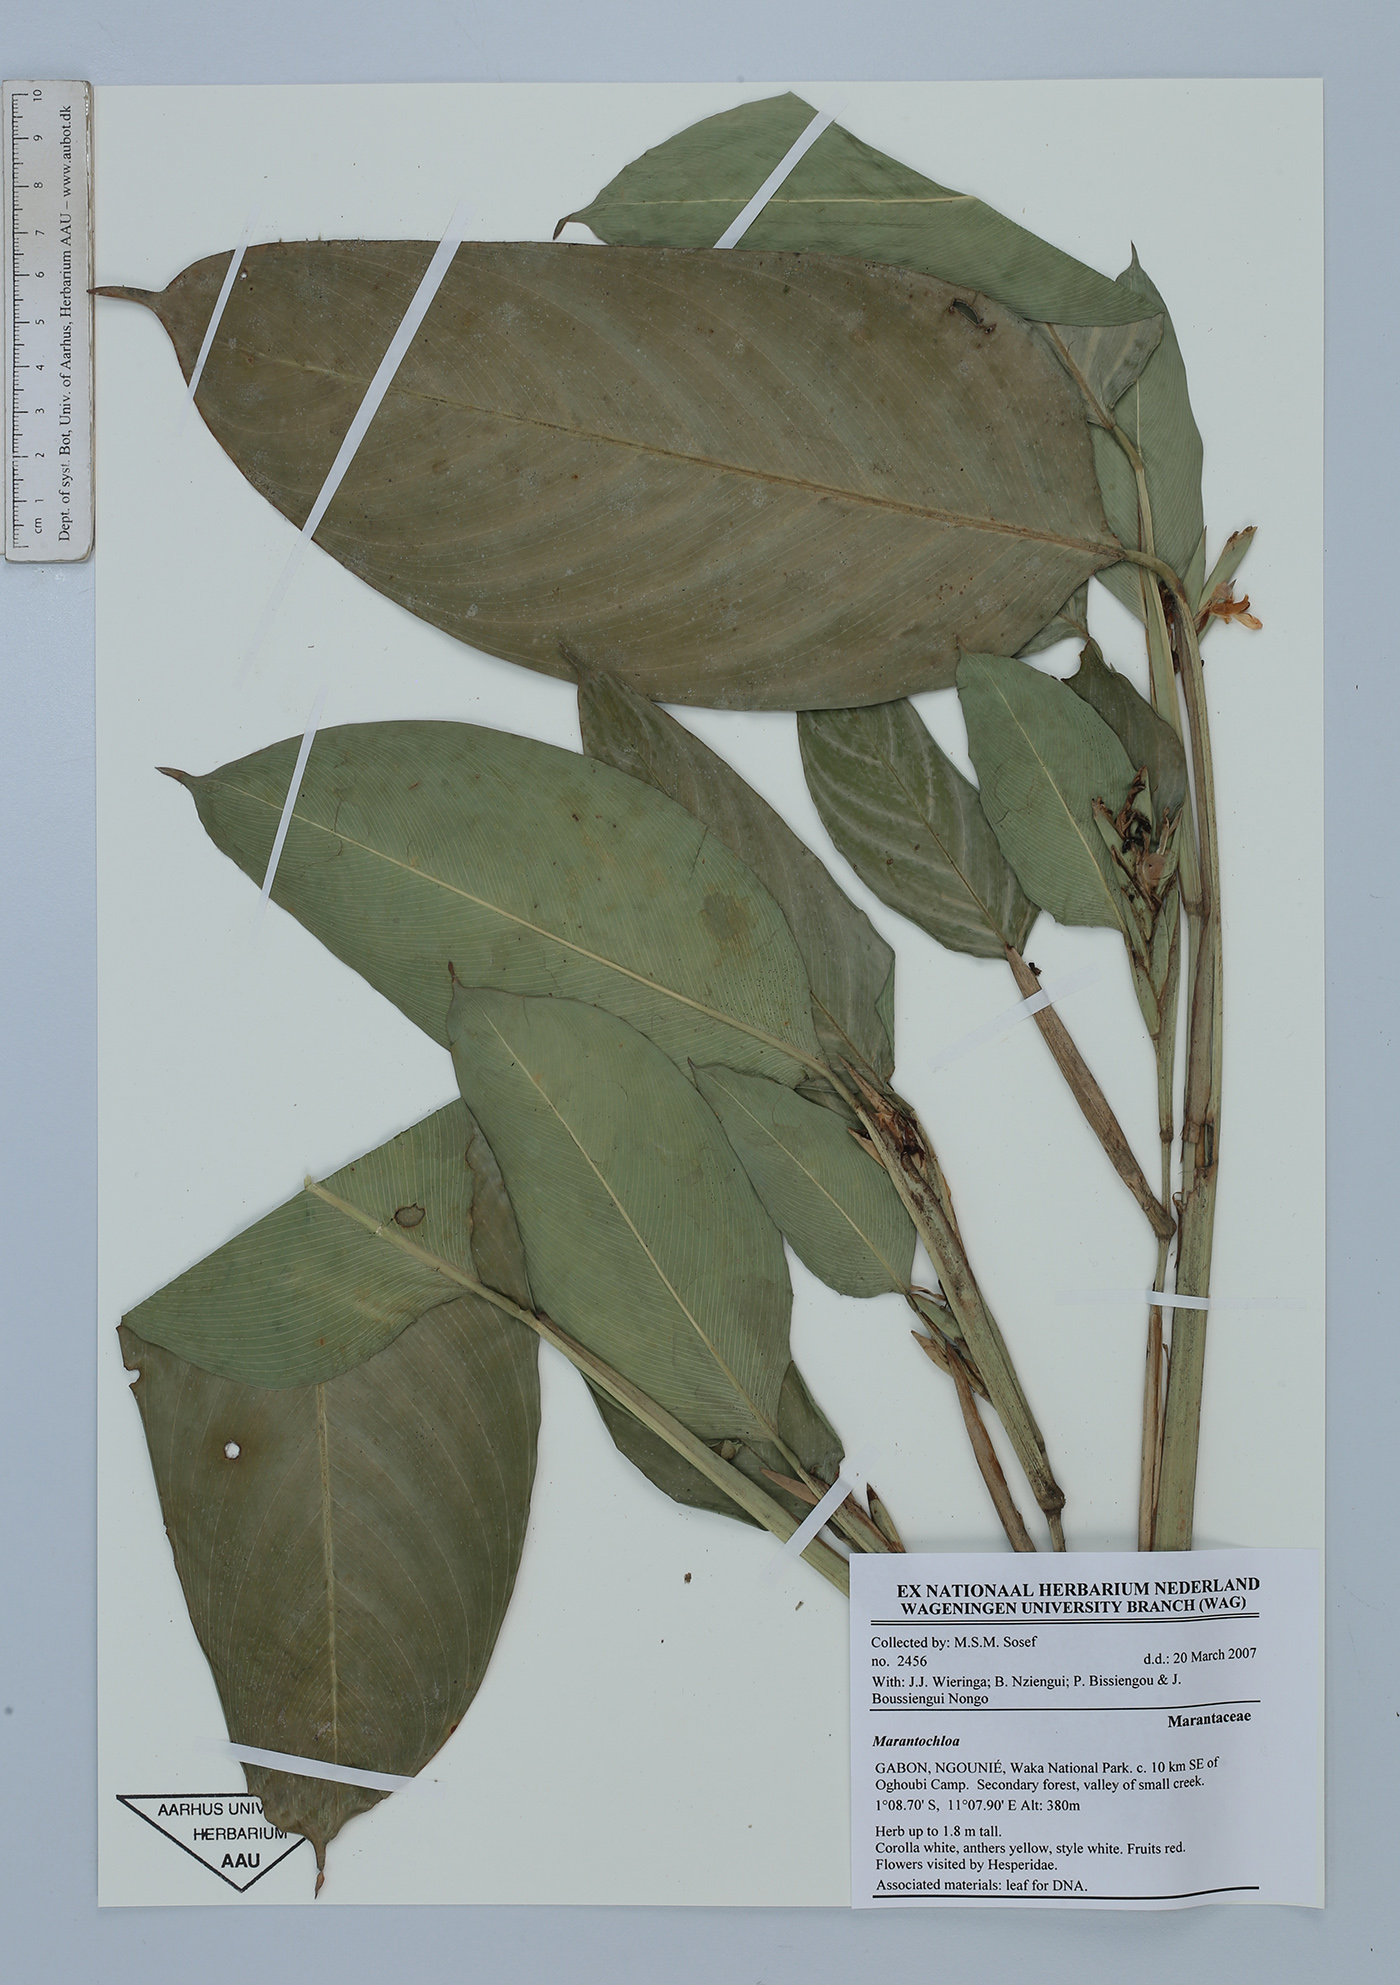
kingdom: Plantae
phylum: Tracheophyta
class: Liliopsida
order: Zingiberales
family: Marantaceae
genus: Marantochloa
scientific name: Marantochloa
